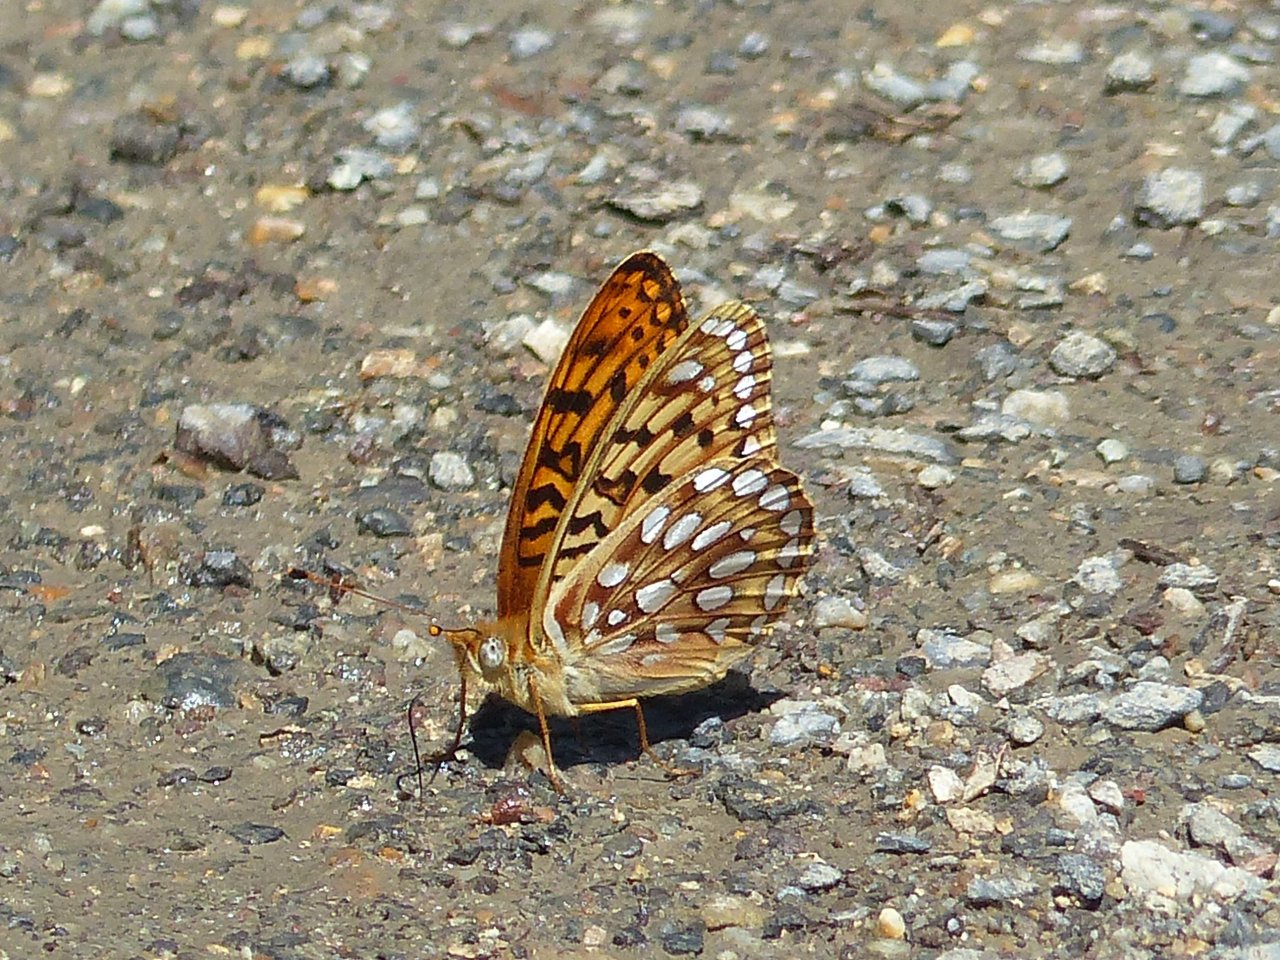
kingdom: Animalia
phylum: Arthropoda
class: Insecta
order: Lepidoptera
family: Nymphalidae
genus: Speyeria
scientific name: Speyeria coronis
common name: Coronis Fritillary
